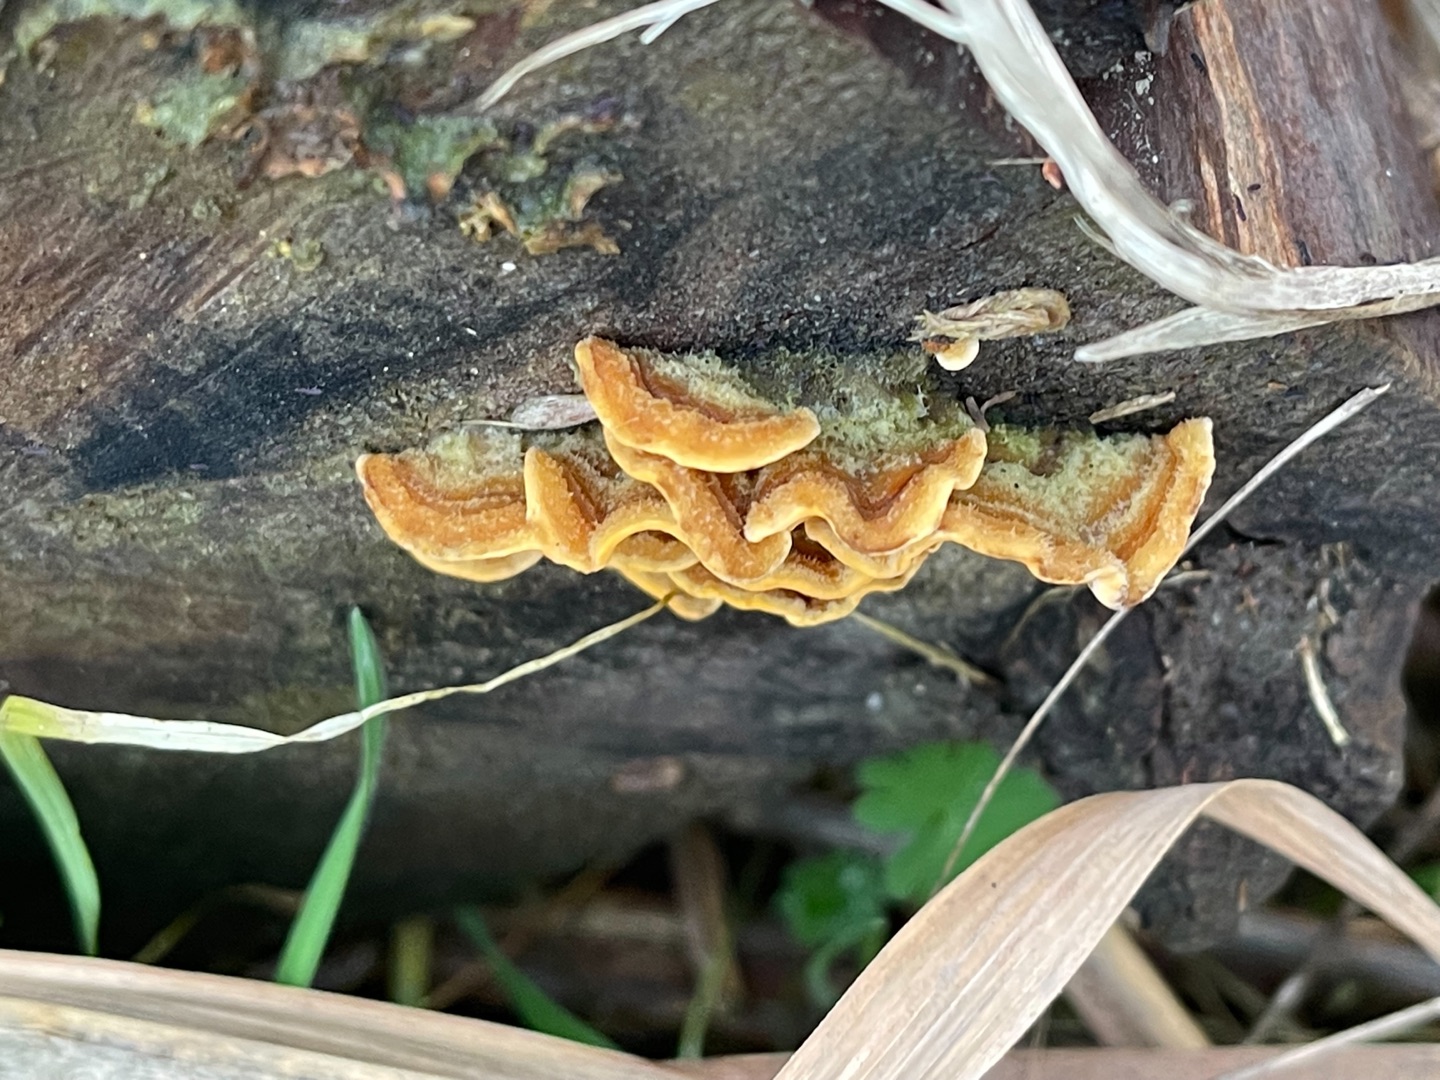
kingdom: Fungi
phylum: Basidiomycota
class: Agaricomycetes
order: Russulales
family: Stereaceae
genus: Stereum
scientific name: Stereum hirsutum
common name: Håret lædersvamp
